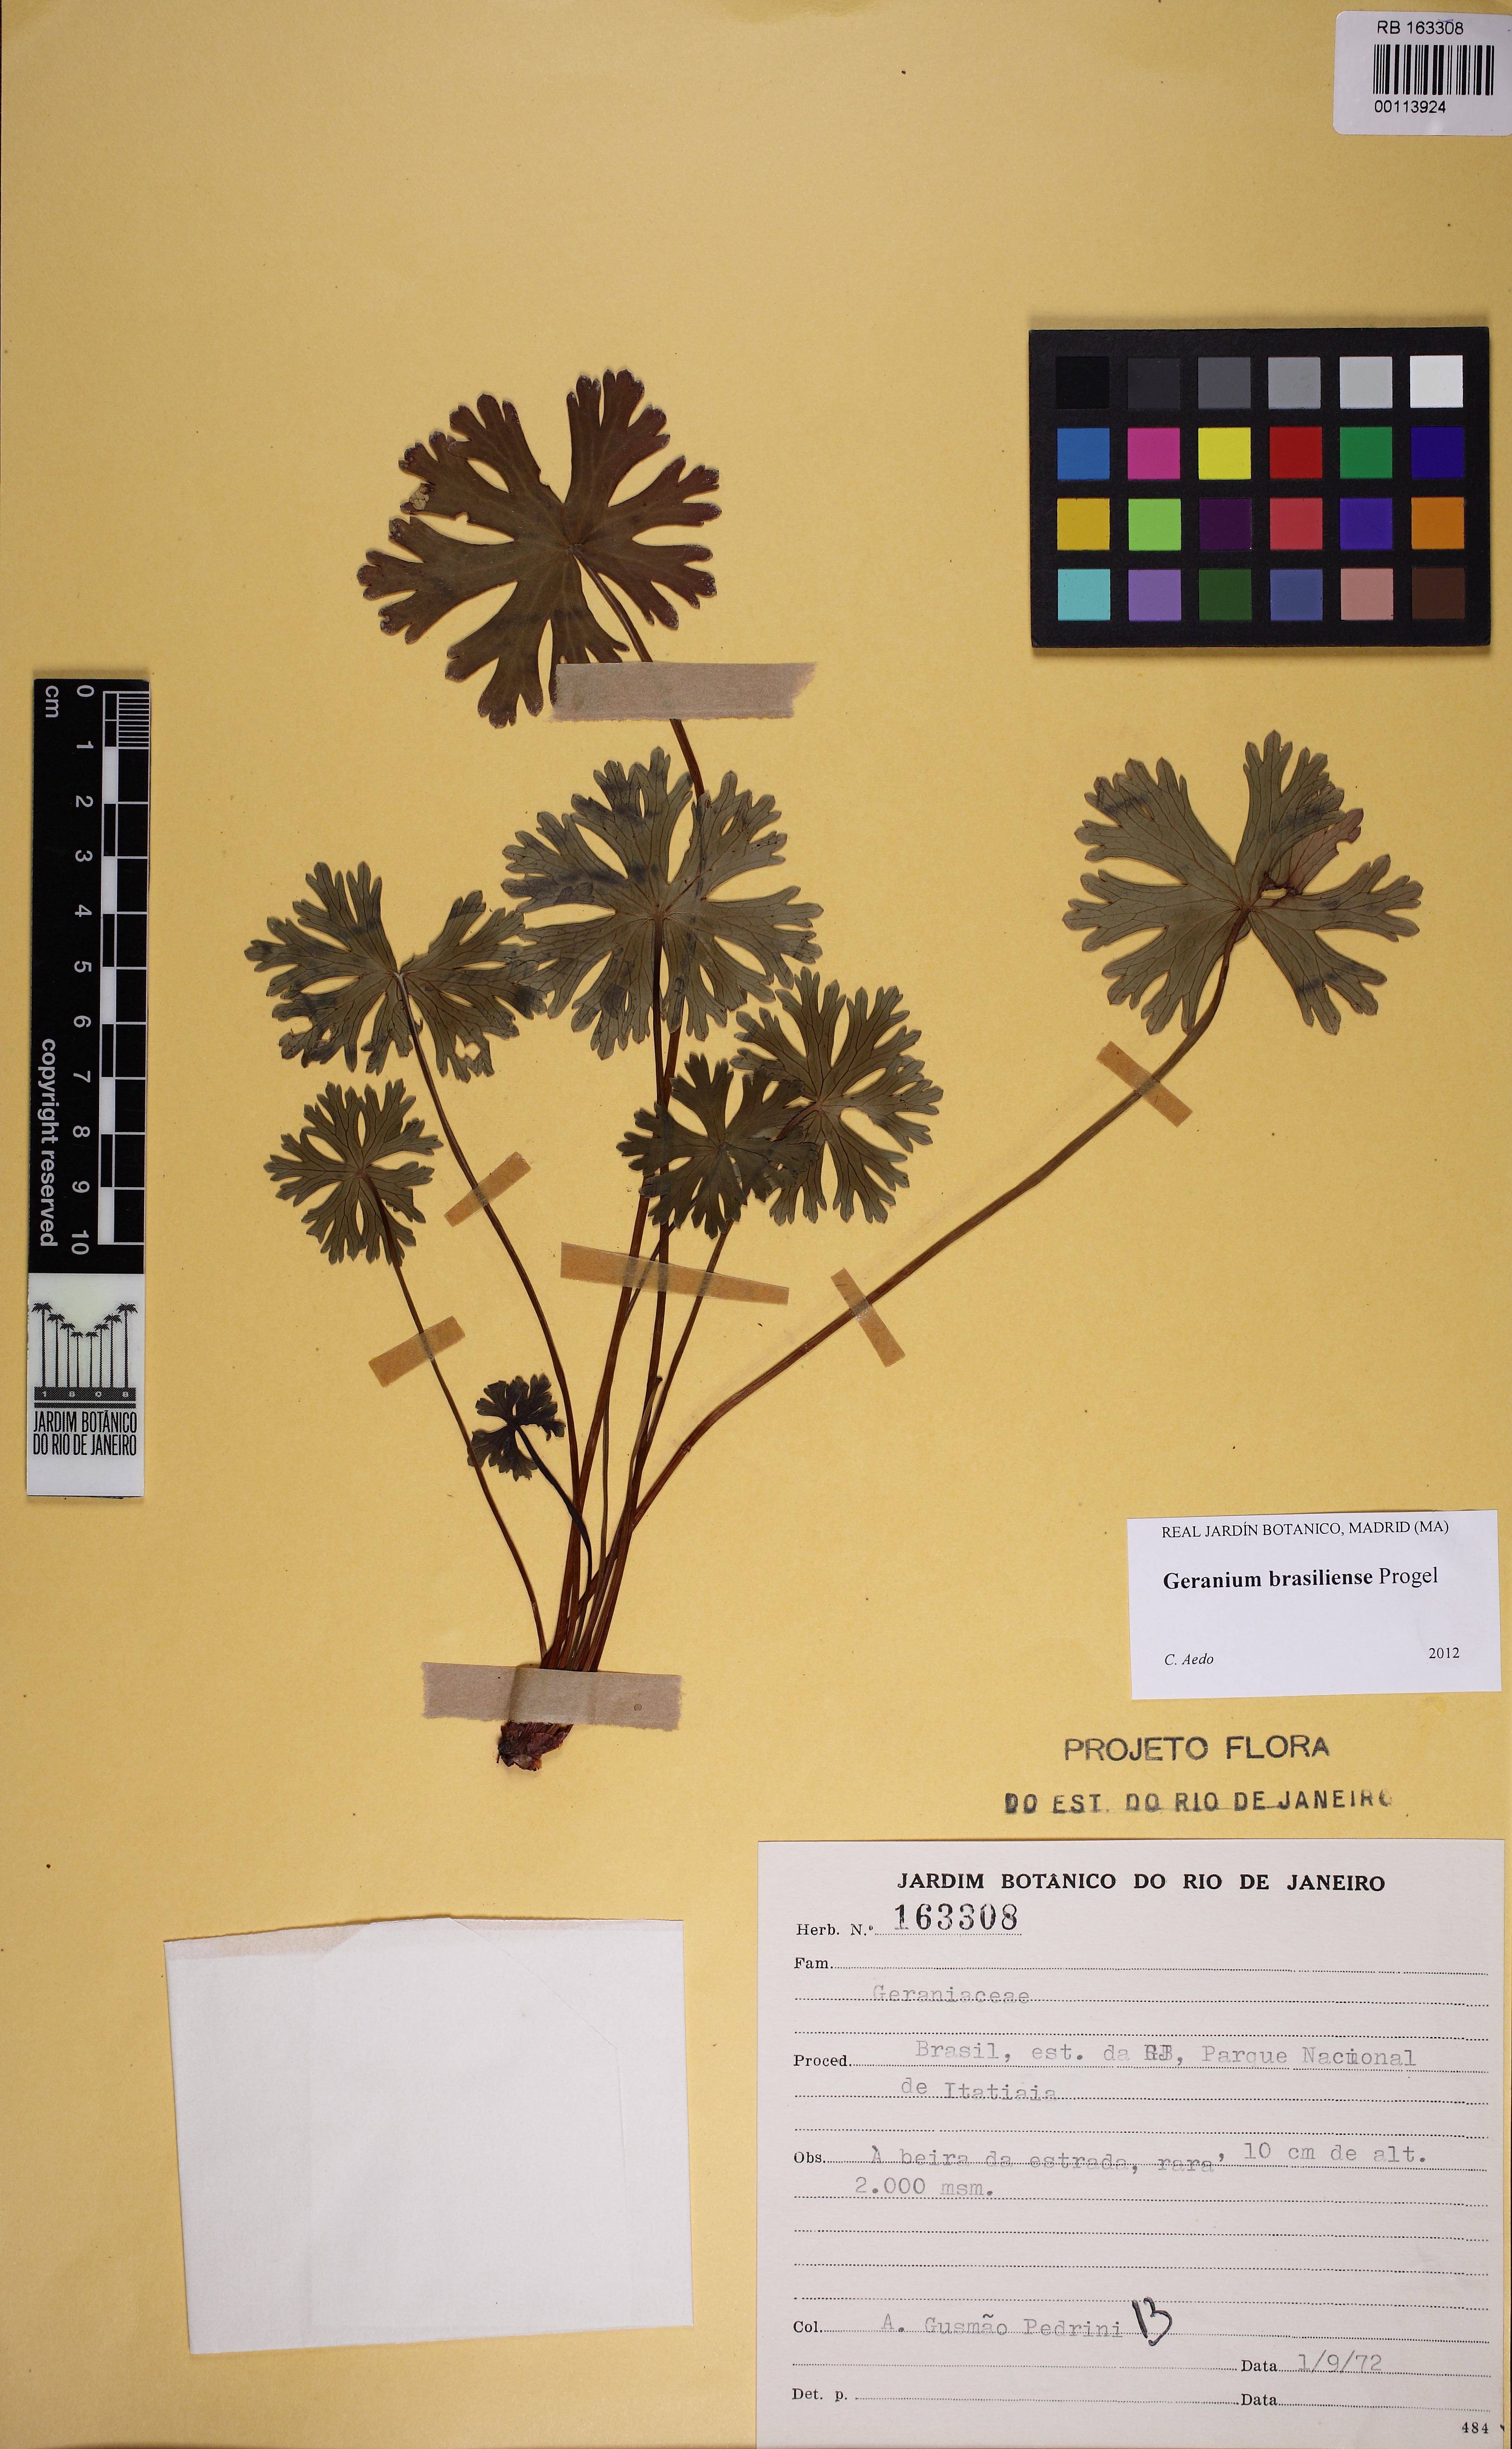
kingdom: Plantae
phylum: Tracheophyta
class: Magnoliopsida
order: Geraniales
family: Geraniaceae
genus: Geranium
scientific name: Geranium brasiliense
